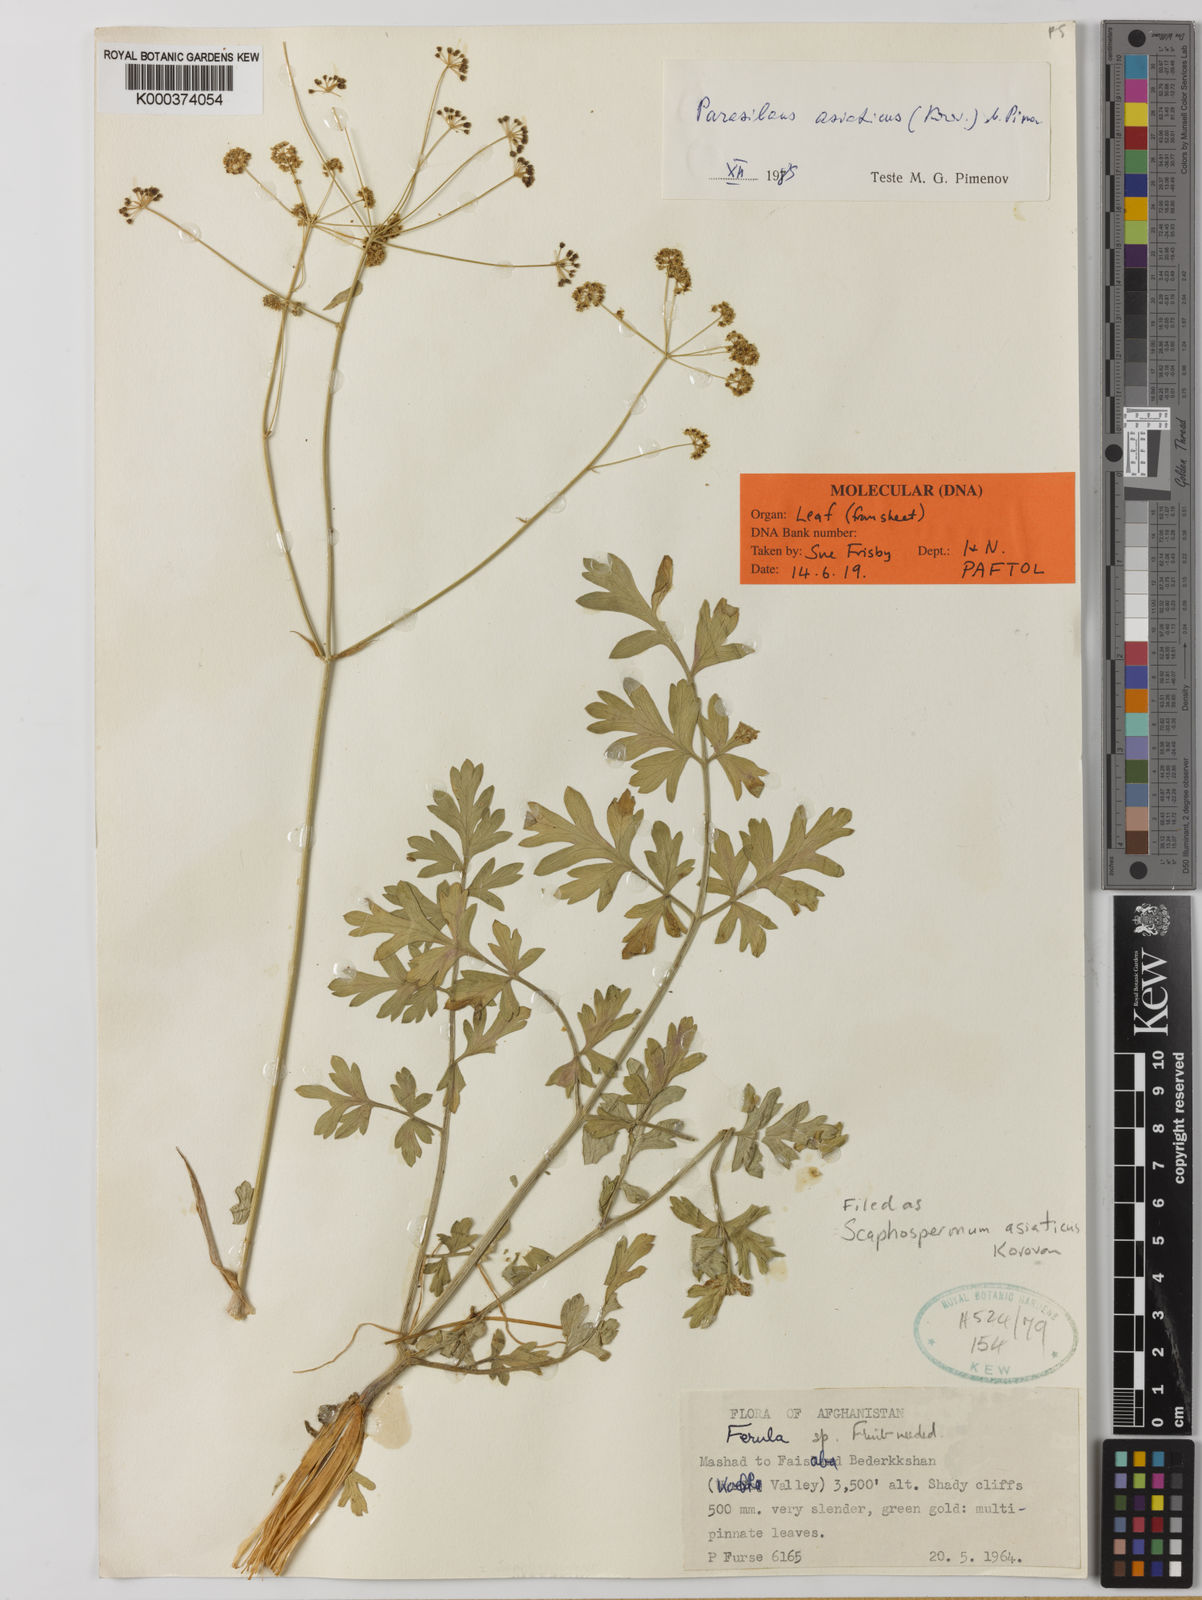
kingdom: Plantae
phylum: Tracheophyta
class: Magnoliopsida
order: Apiales
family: Apiaceae
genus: Parasilaus
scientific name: Parasilaus asiaticus
